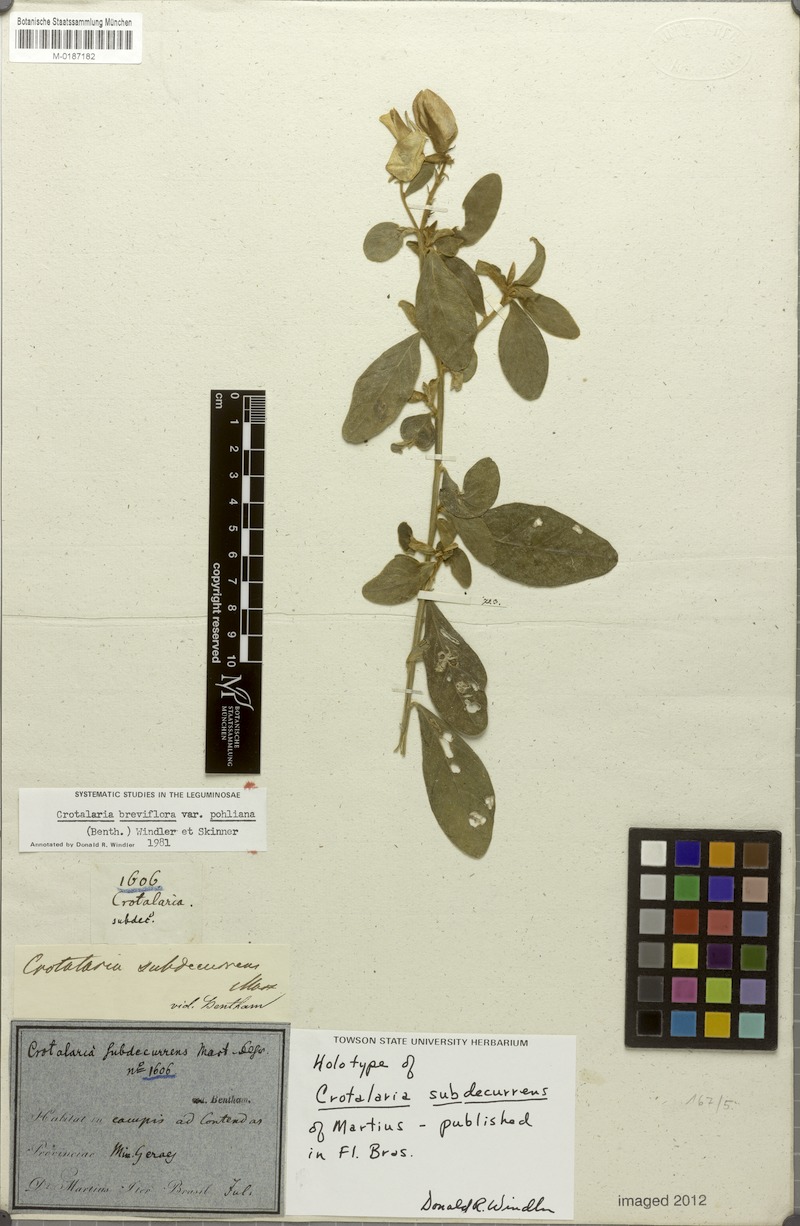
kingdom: Plantae
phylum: Tracheophyta
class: Magnoliopsida
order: Fabales
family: Fabaceae
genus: Crotalaria
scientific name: Crotalaria subdecurrens
